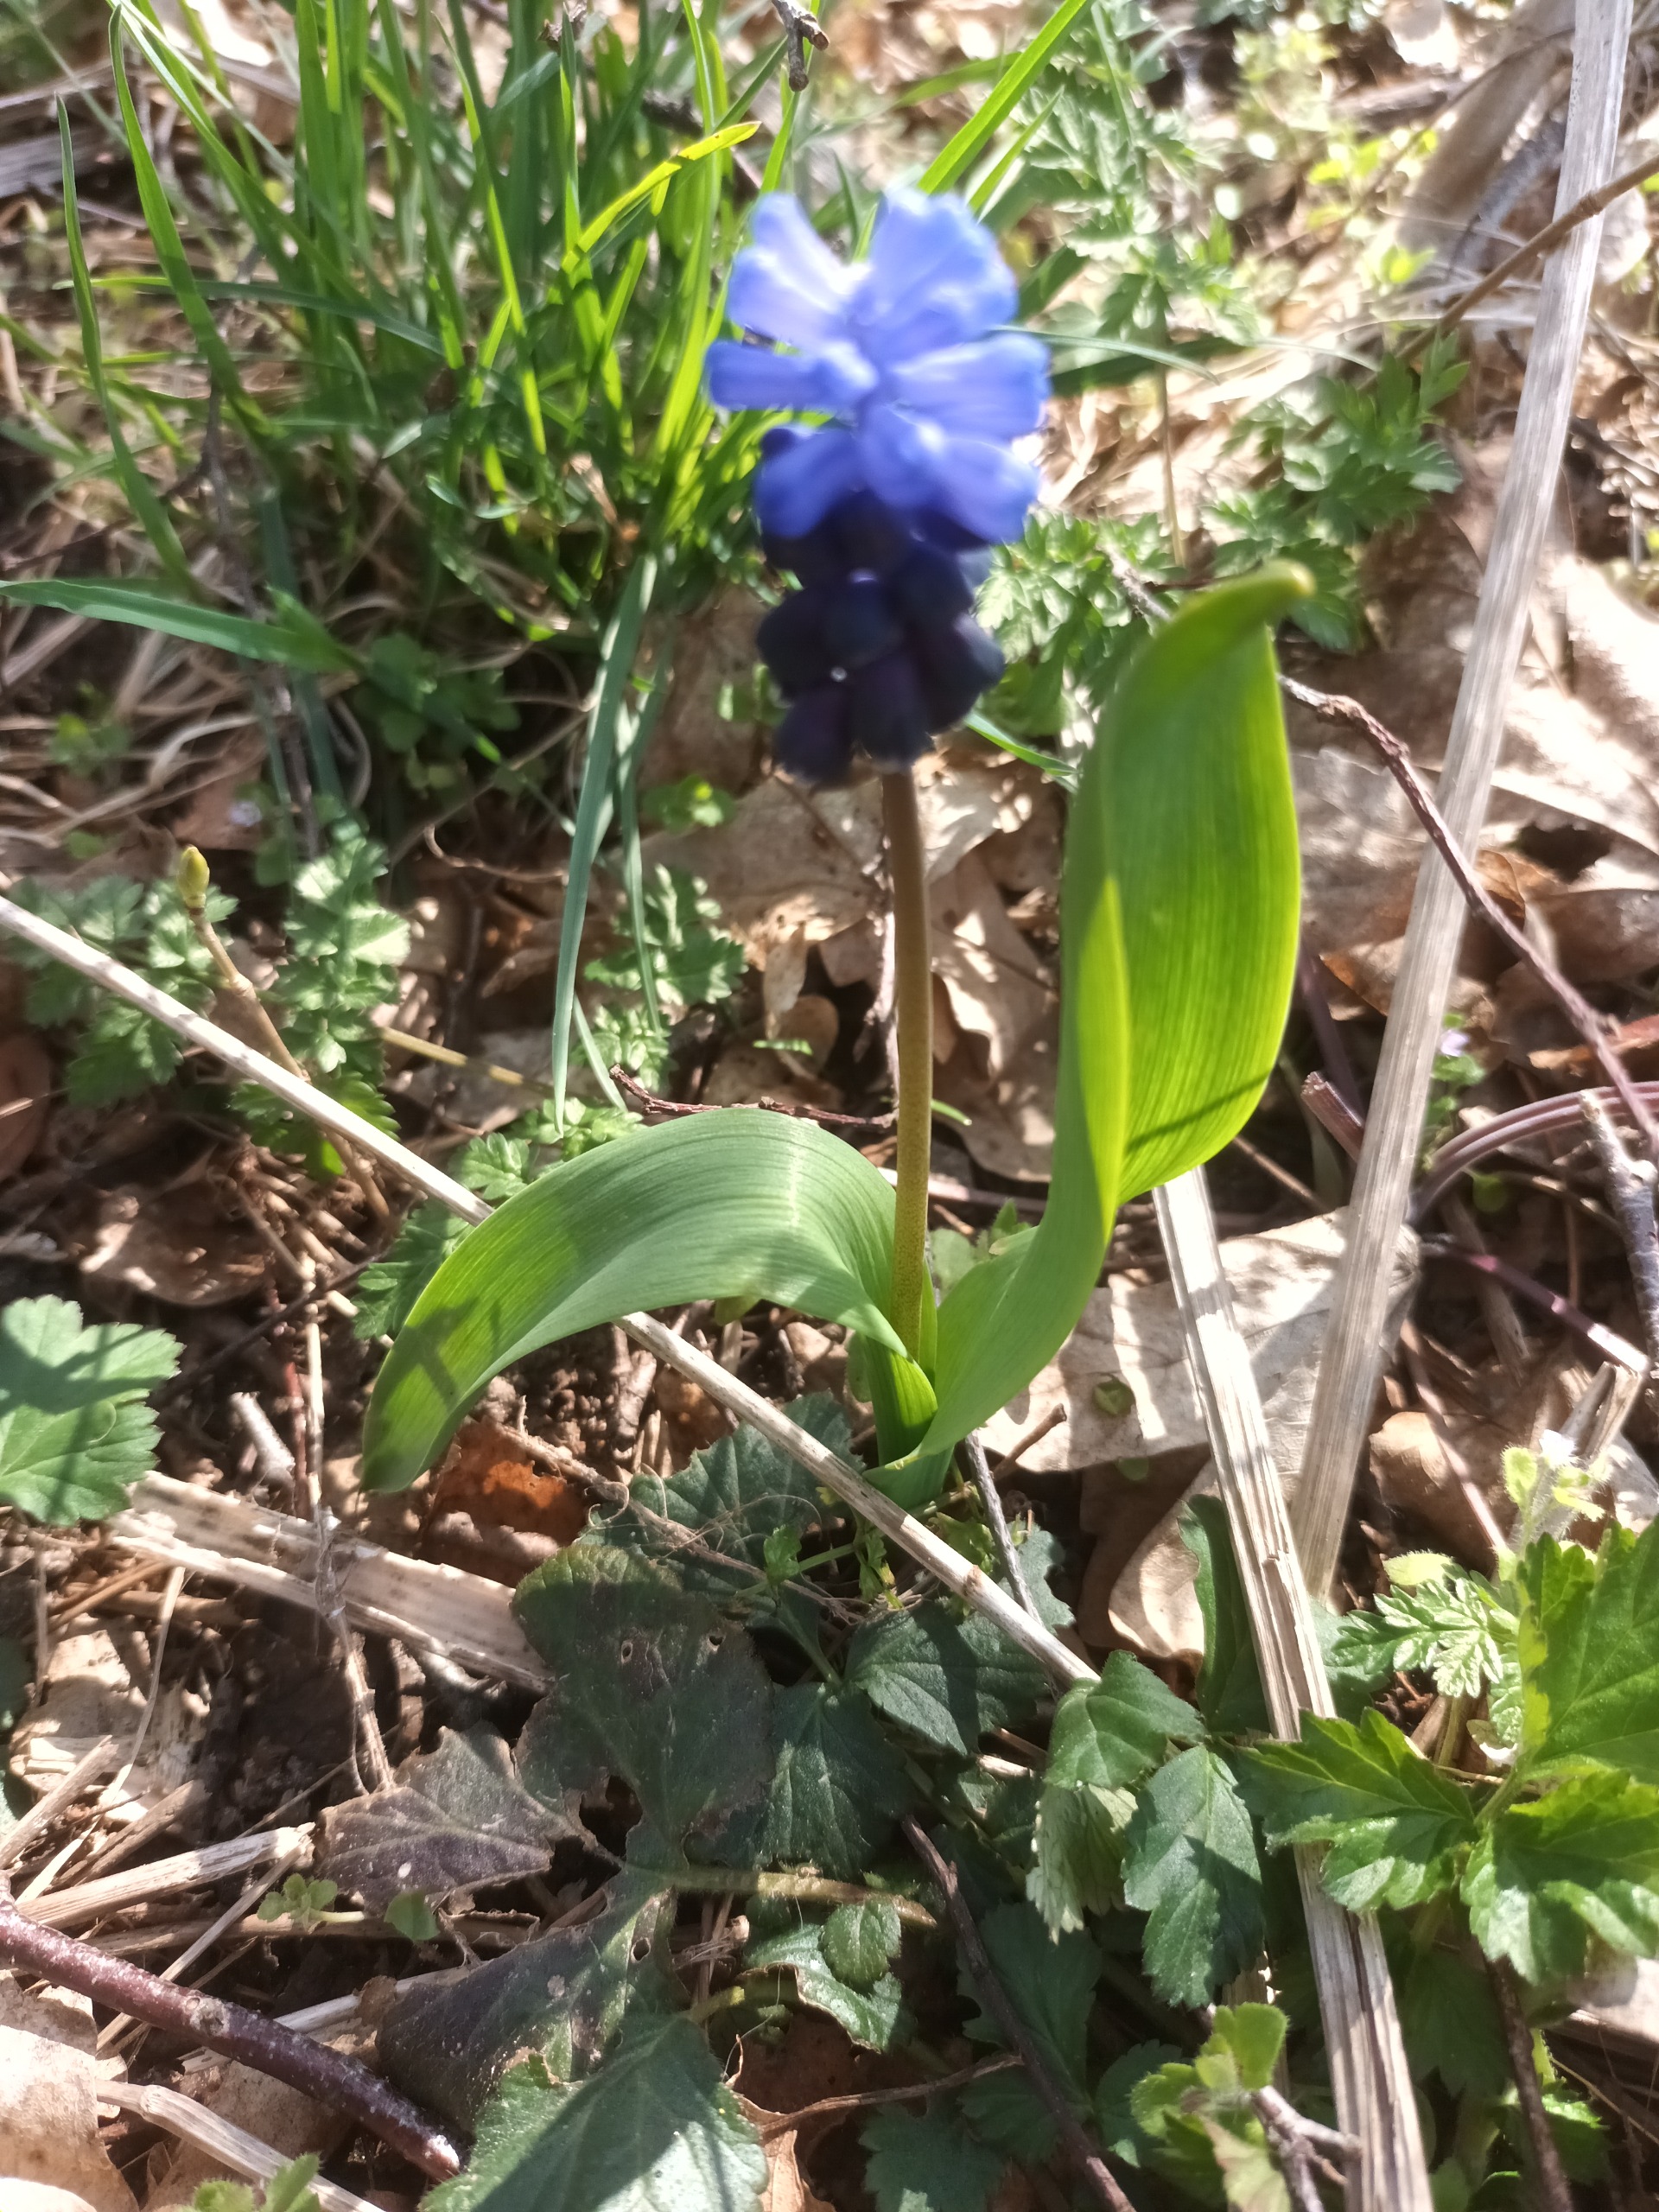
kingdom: Plantae
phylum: Tracheophyta
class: Liliopsida
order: Asparagales
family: Asparagaceae
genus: Muscari
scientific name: Muscari latifolium
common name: Bredbladet perlehyacint
